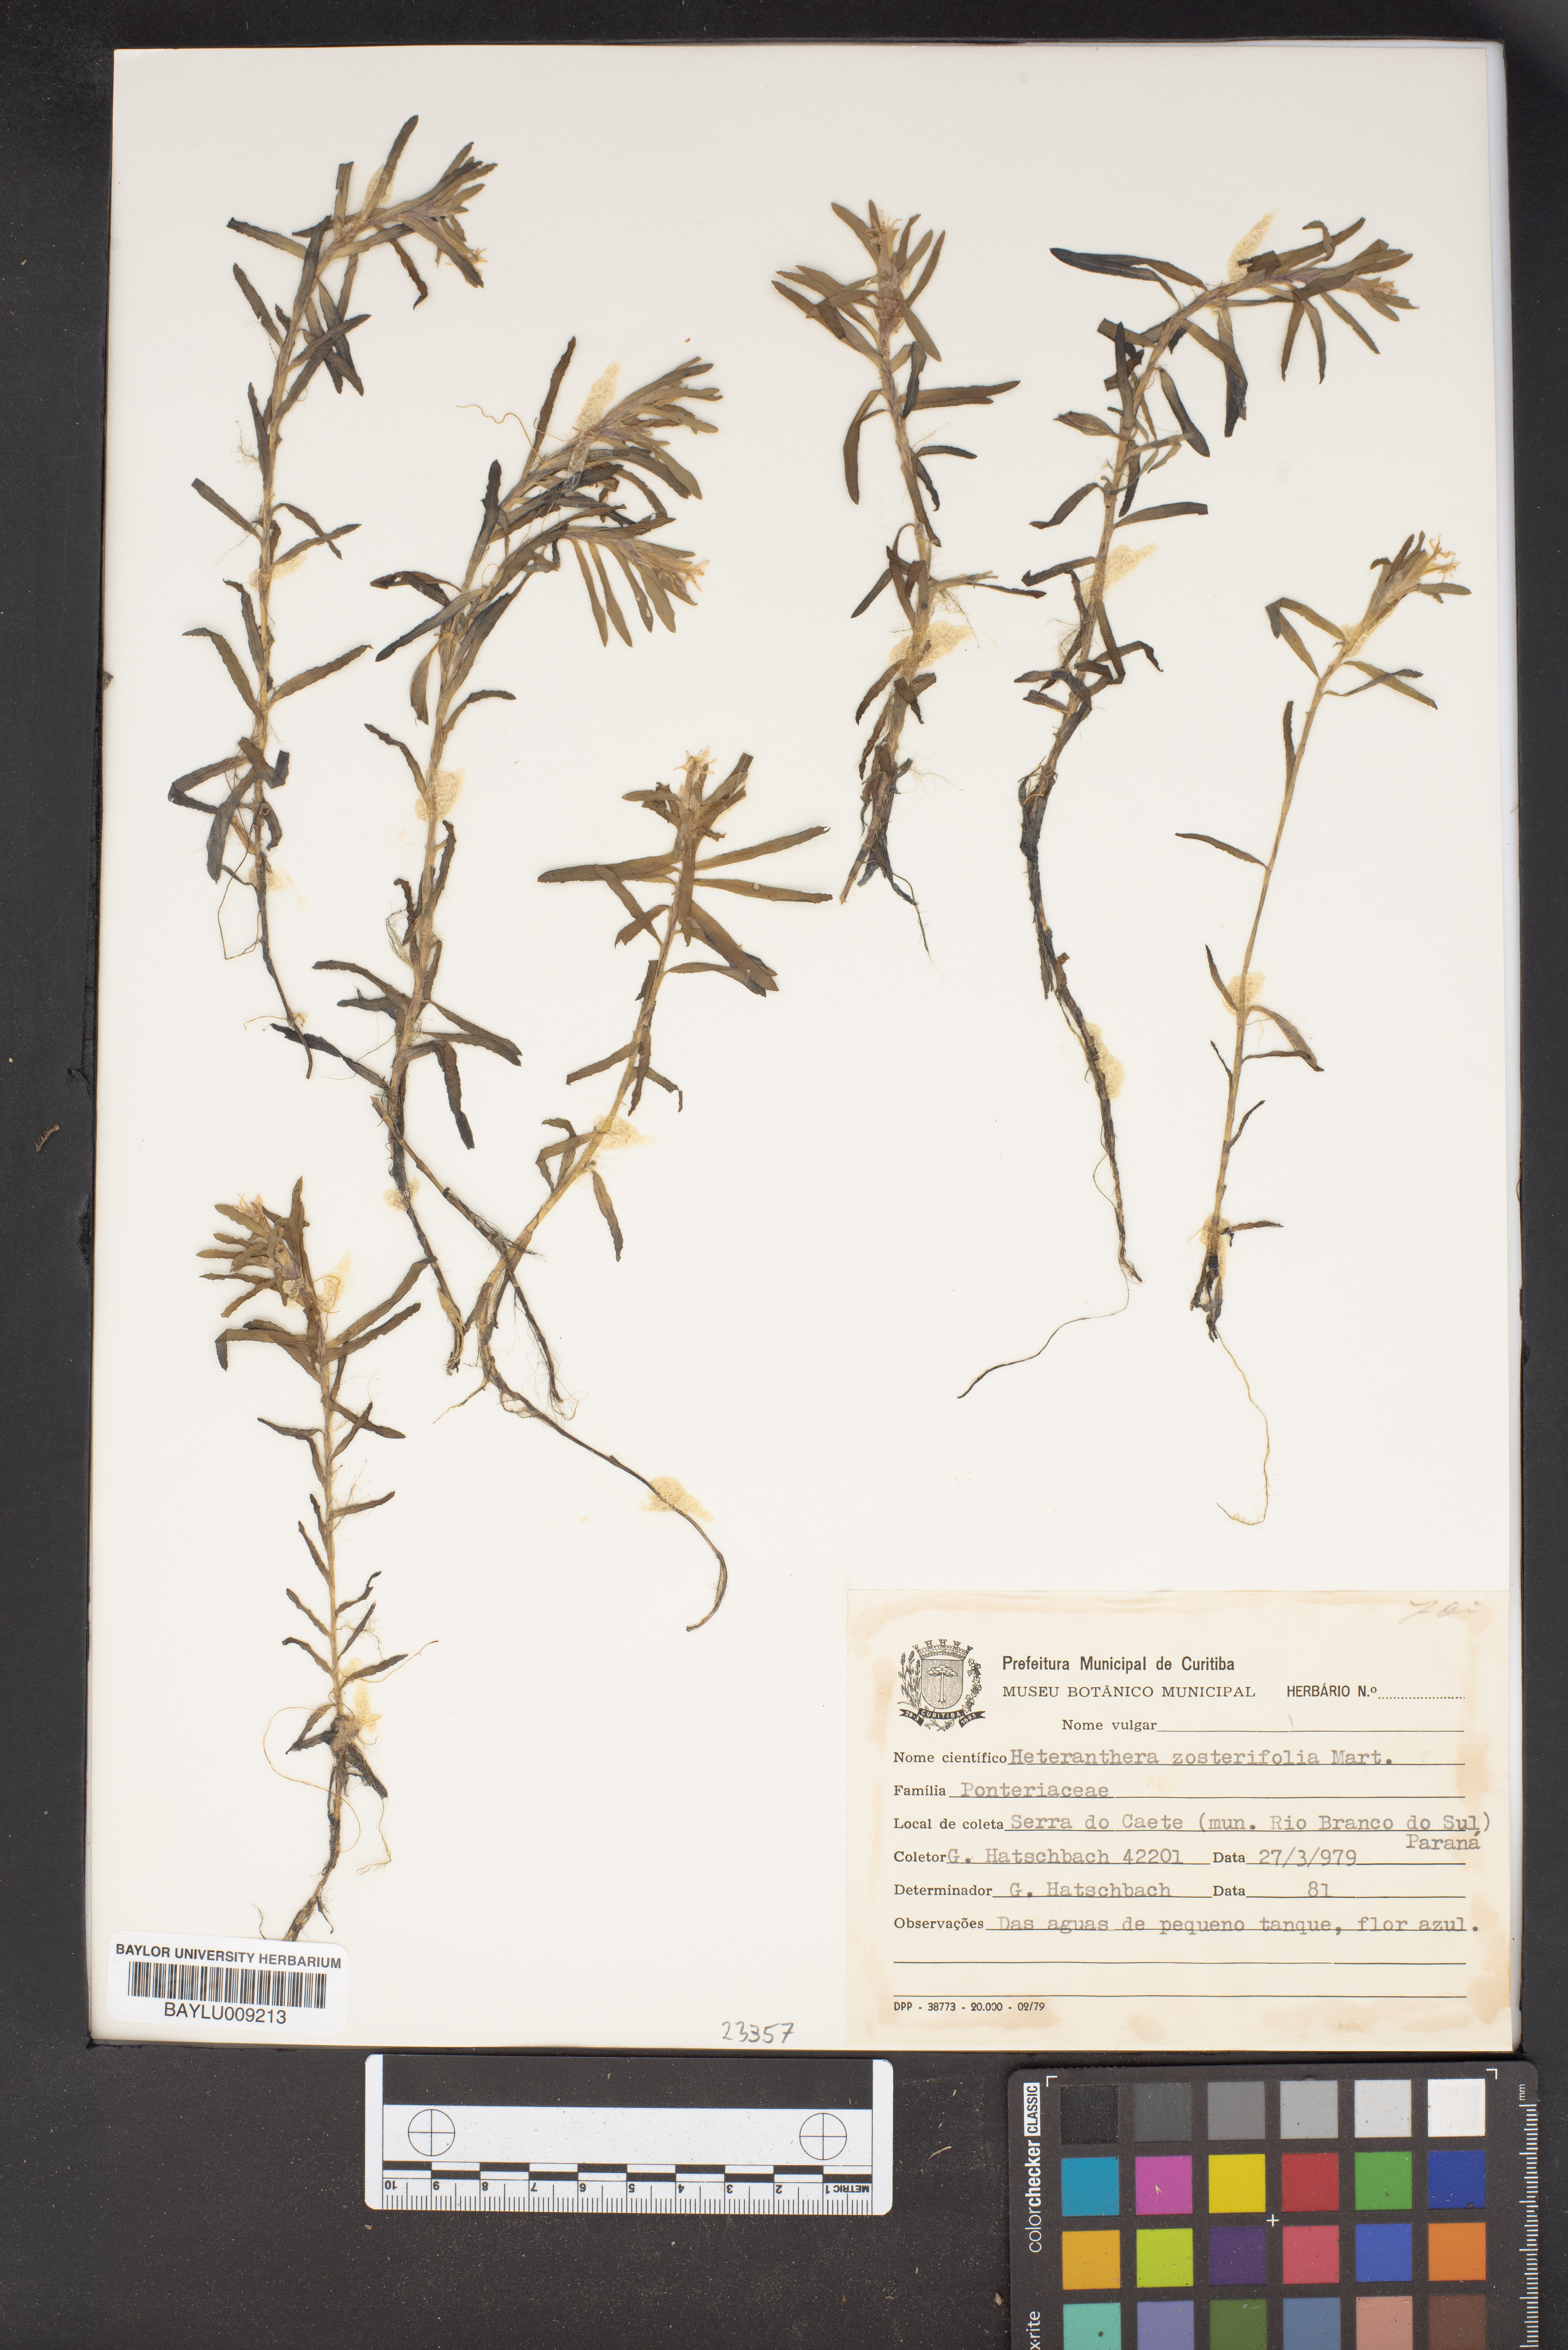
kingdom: Plantae
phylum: Tracheophyta
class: Liliopsida
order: Commelinales
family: Pontederiaceae
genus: Heteranthera
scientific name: Heteranthera zosterifolia
